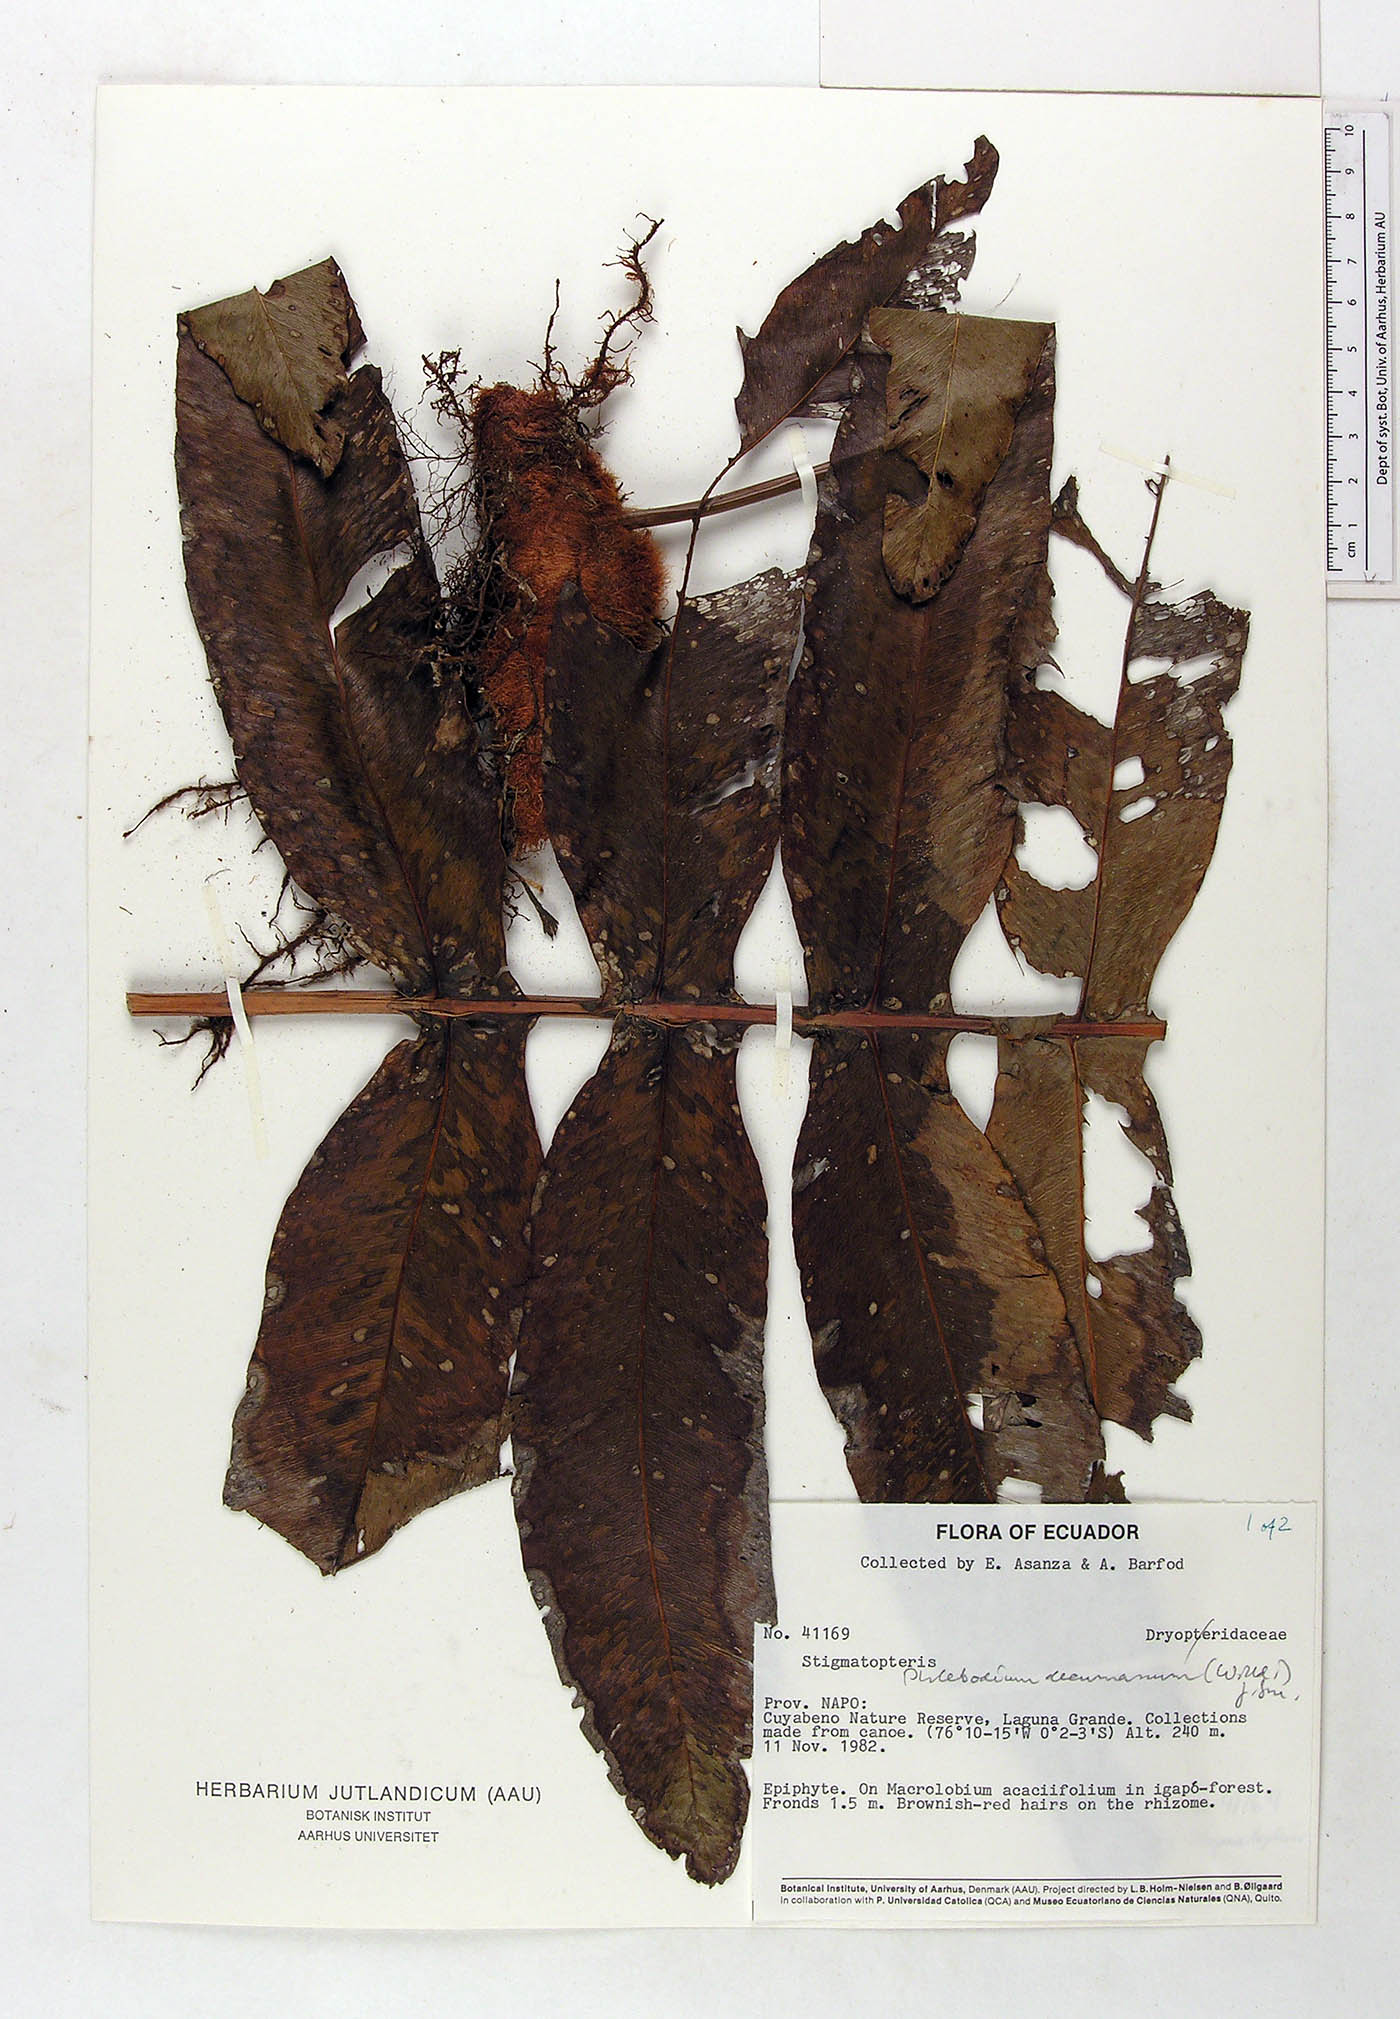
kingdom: Plantae
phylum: Tracheophyta
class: Polypodiopsida
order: Polypodiales
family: Polypodiaceae
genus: Phlebodium
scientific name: Phlebodium decumanum
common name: Golden polypod
